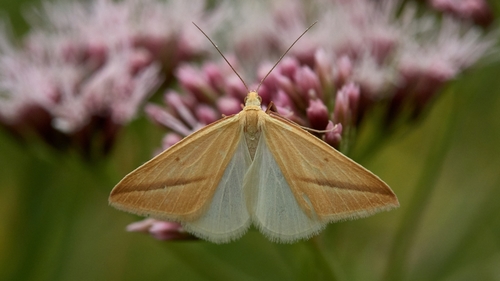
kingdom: Animalia
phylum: Arthropoda
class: Insecta
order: Lepidoptera
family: Geometridae
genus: Rhodometra
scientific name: Rhodometra sacraria
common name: Vestal
